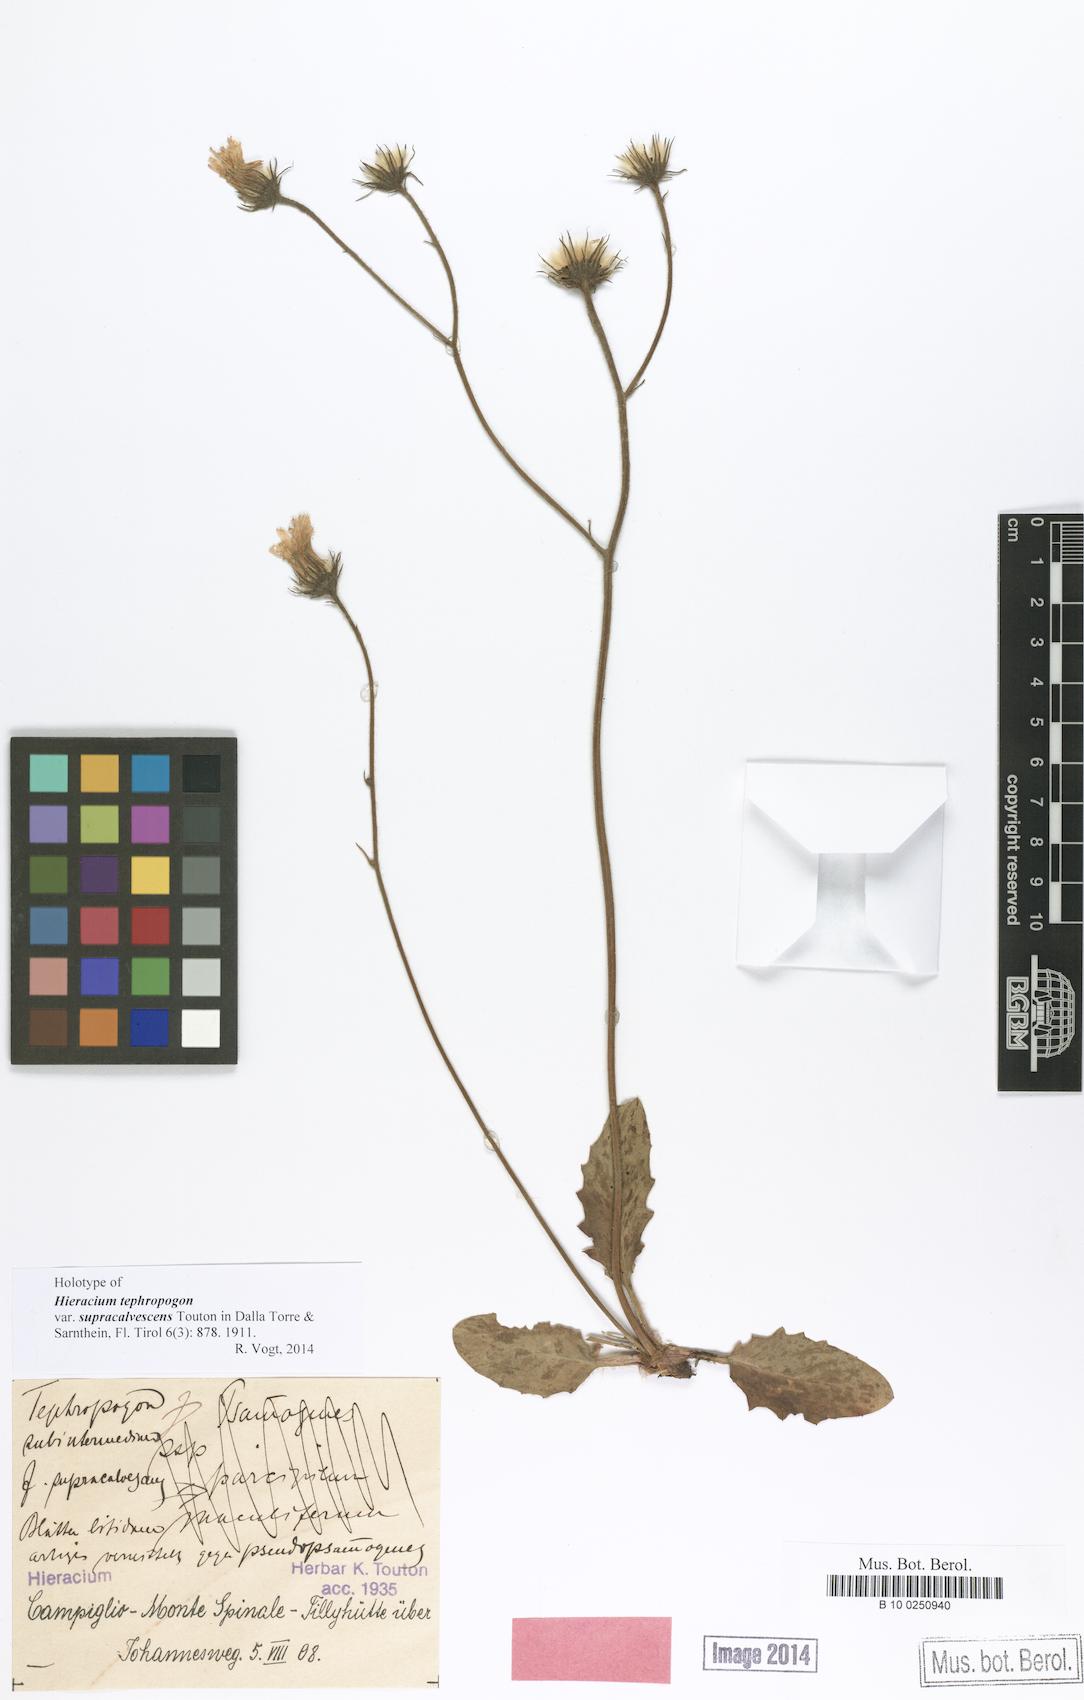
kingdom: Plantae
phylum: Tracheophyta
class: Magnoliopsida
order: Asterales
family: Asteraceae
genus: Hieracium
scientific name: Hieracium tephropogon
